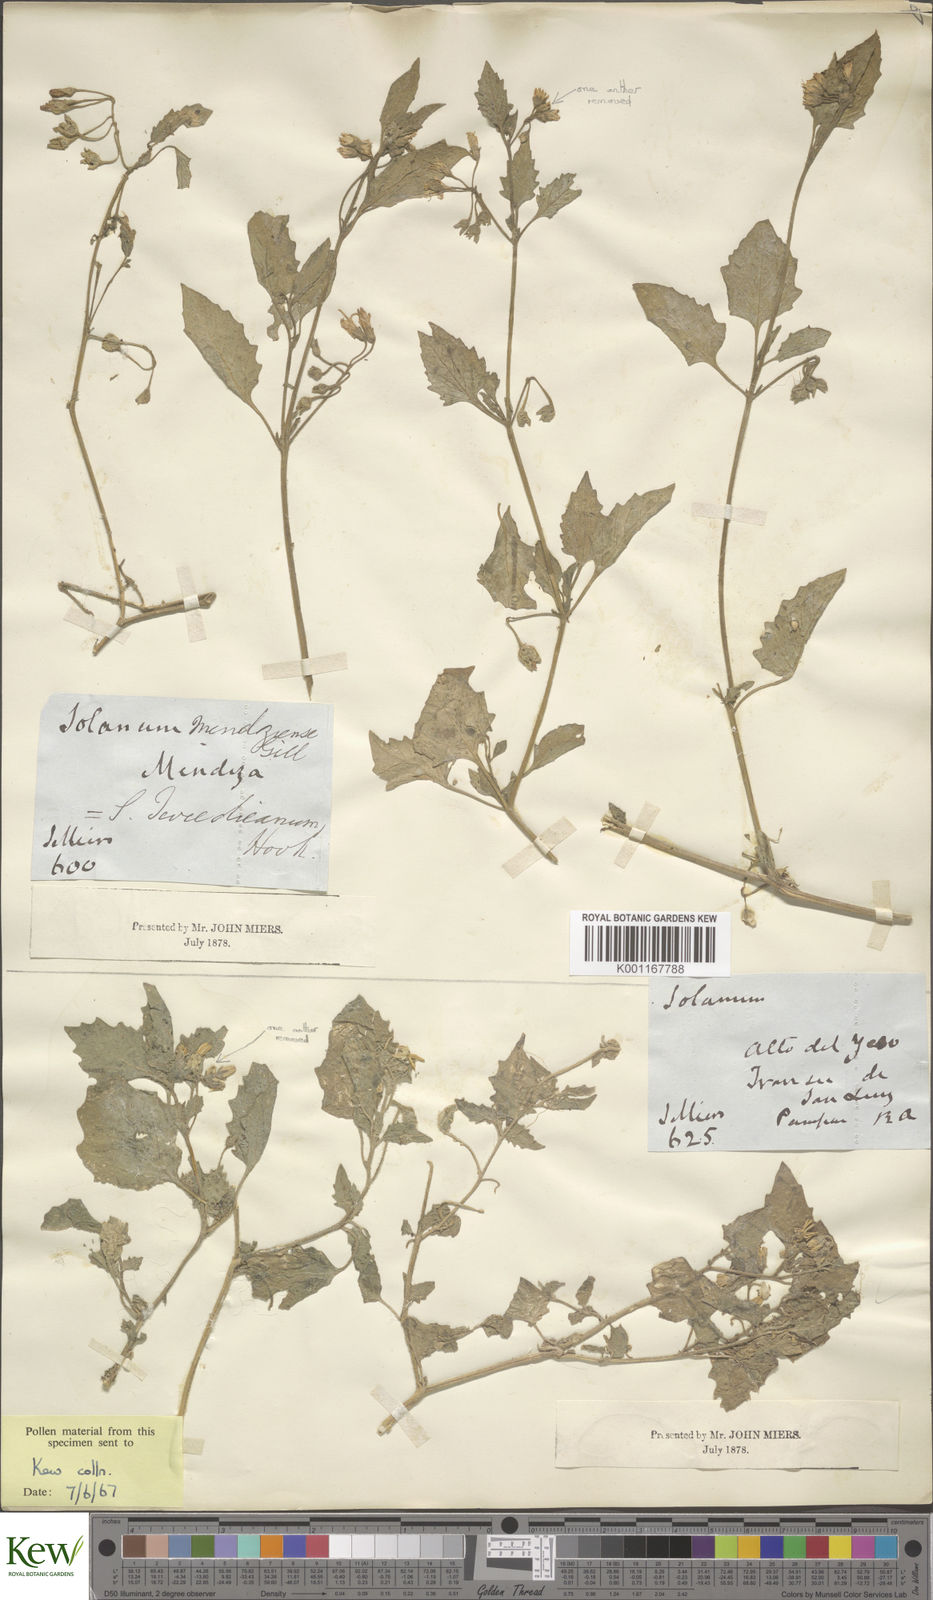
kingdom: Plantae
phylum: Tracheophyta
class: Magnoliopsida
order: Solanales
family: Solanaceae
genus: Solanum
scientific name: Solanum tweedianum
